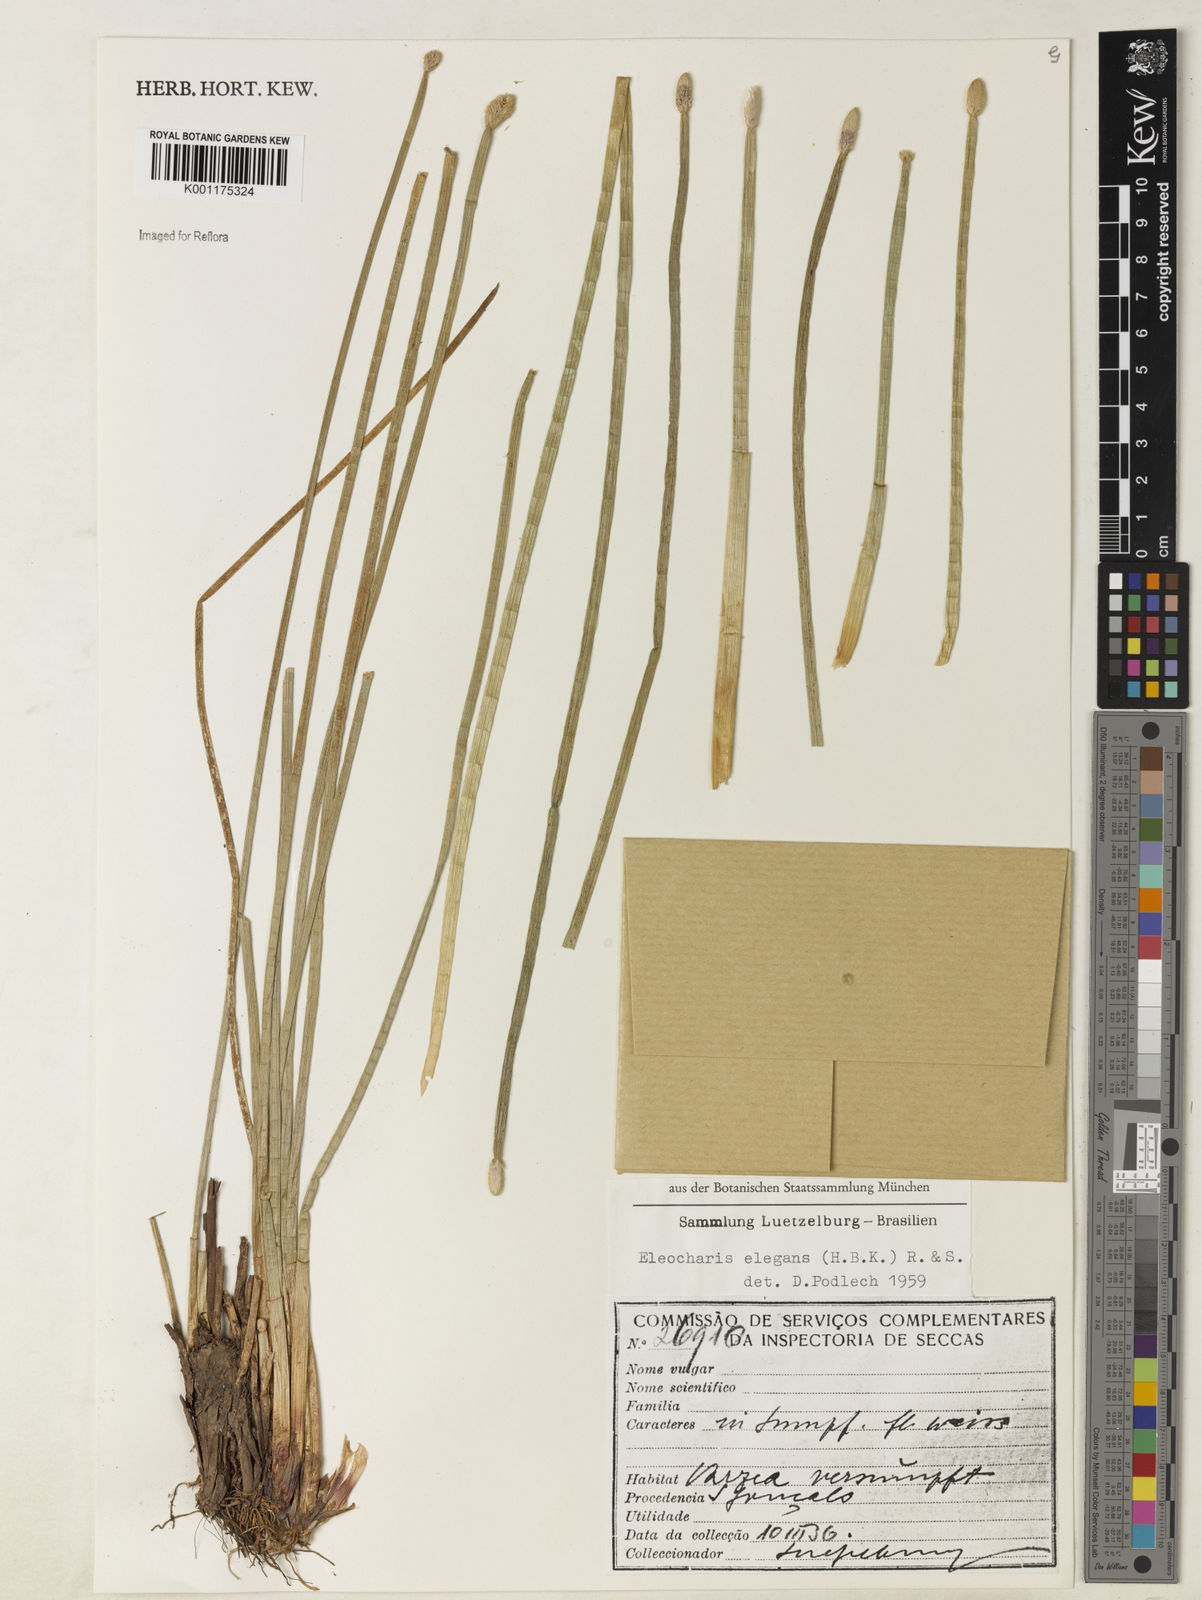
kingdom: Plantae
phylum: Tracheophyta
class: Liliopsida
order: Poales
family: Cyperaceae
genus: Eleocharis
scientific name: Eleocharis elegans
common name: Elegant spike-rush
